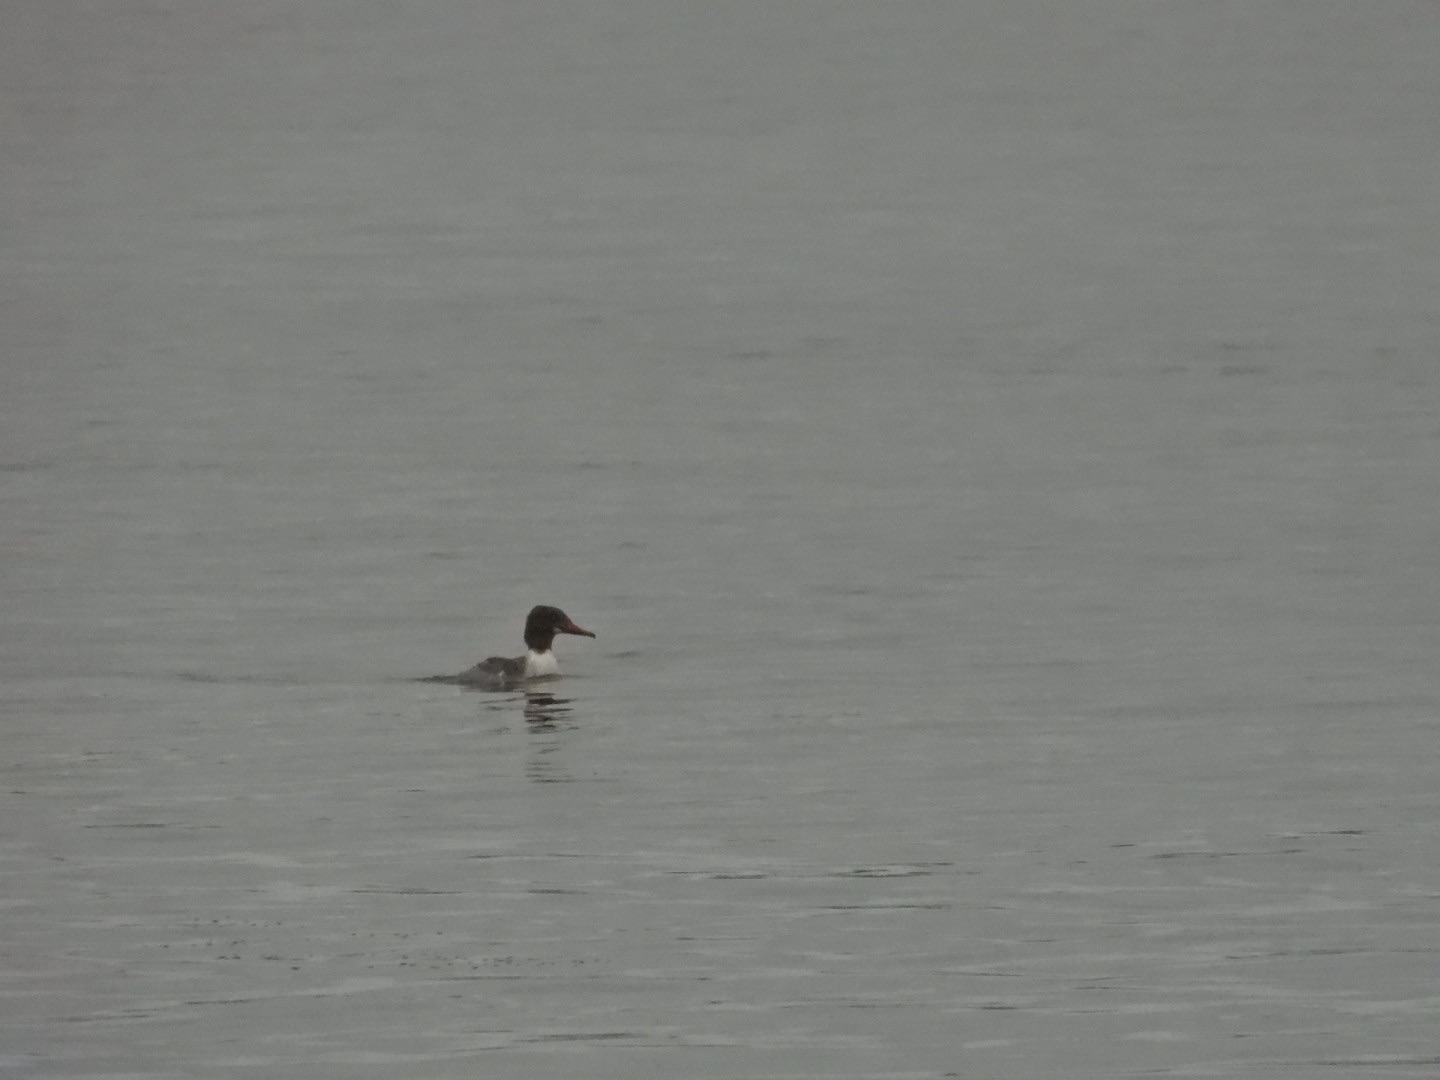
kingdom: Animalia
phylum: Chordata
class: Aves
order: Anseriformes
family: Anatidae
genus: Mergus
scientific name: Mergus merganser
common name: Stor skallesluger
